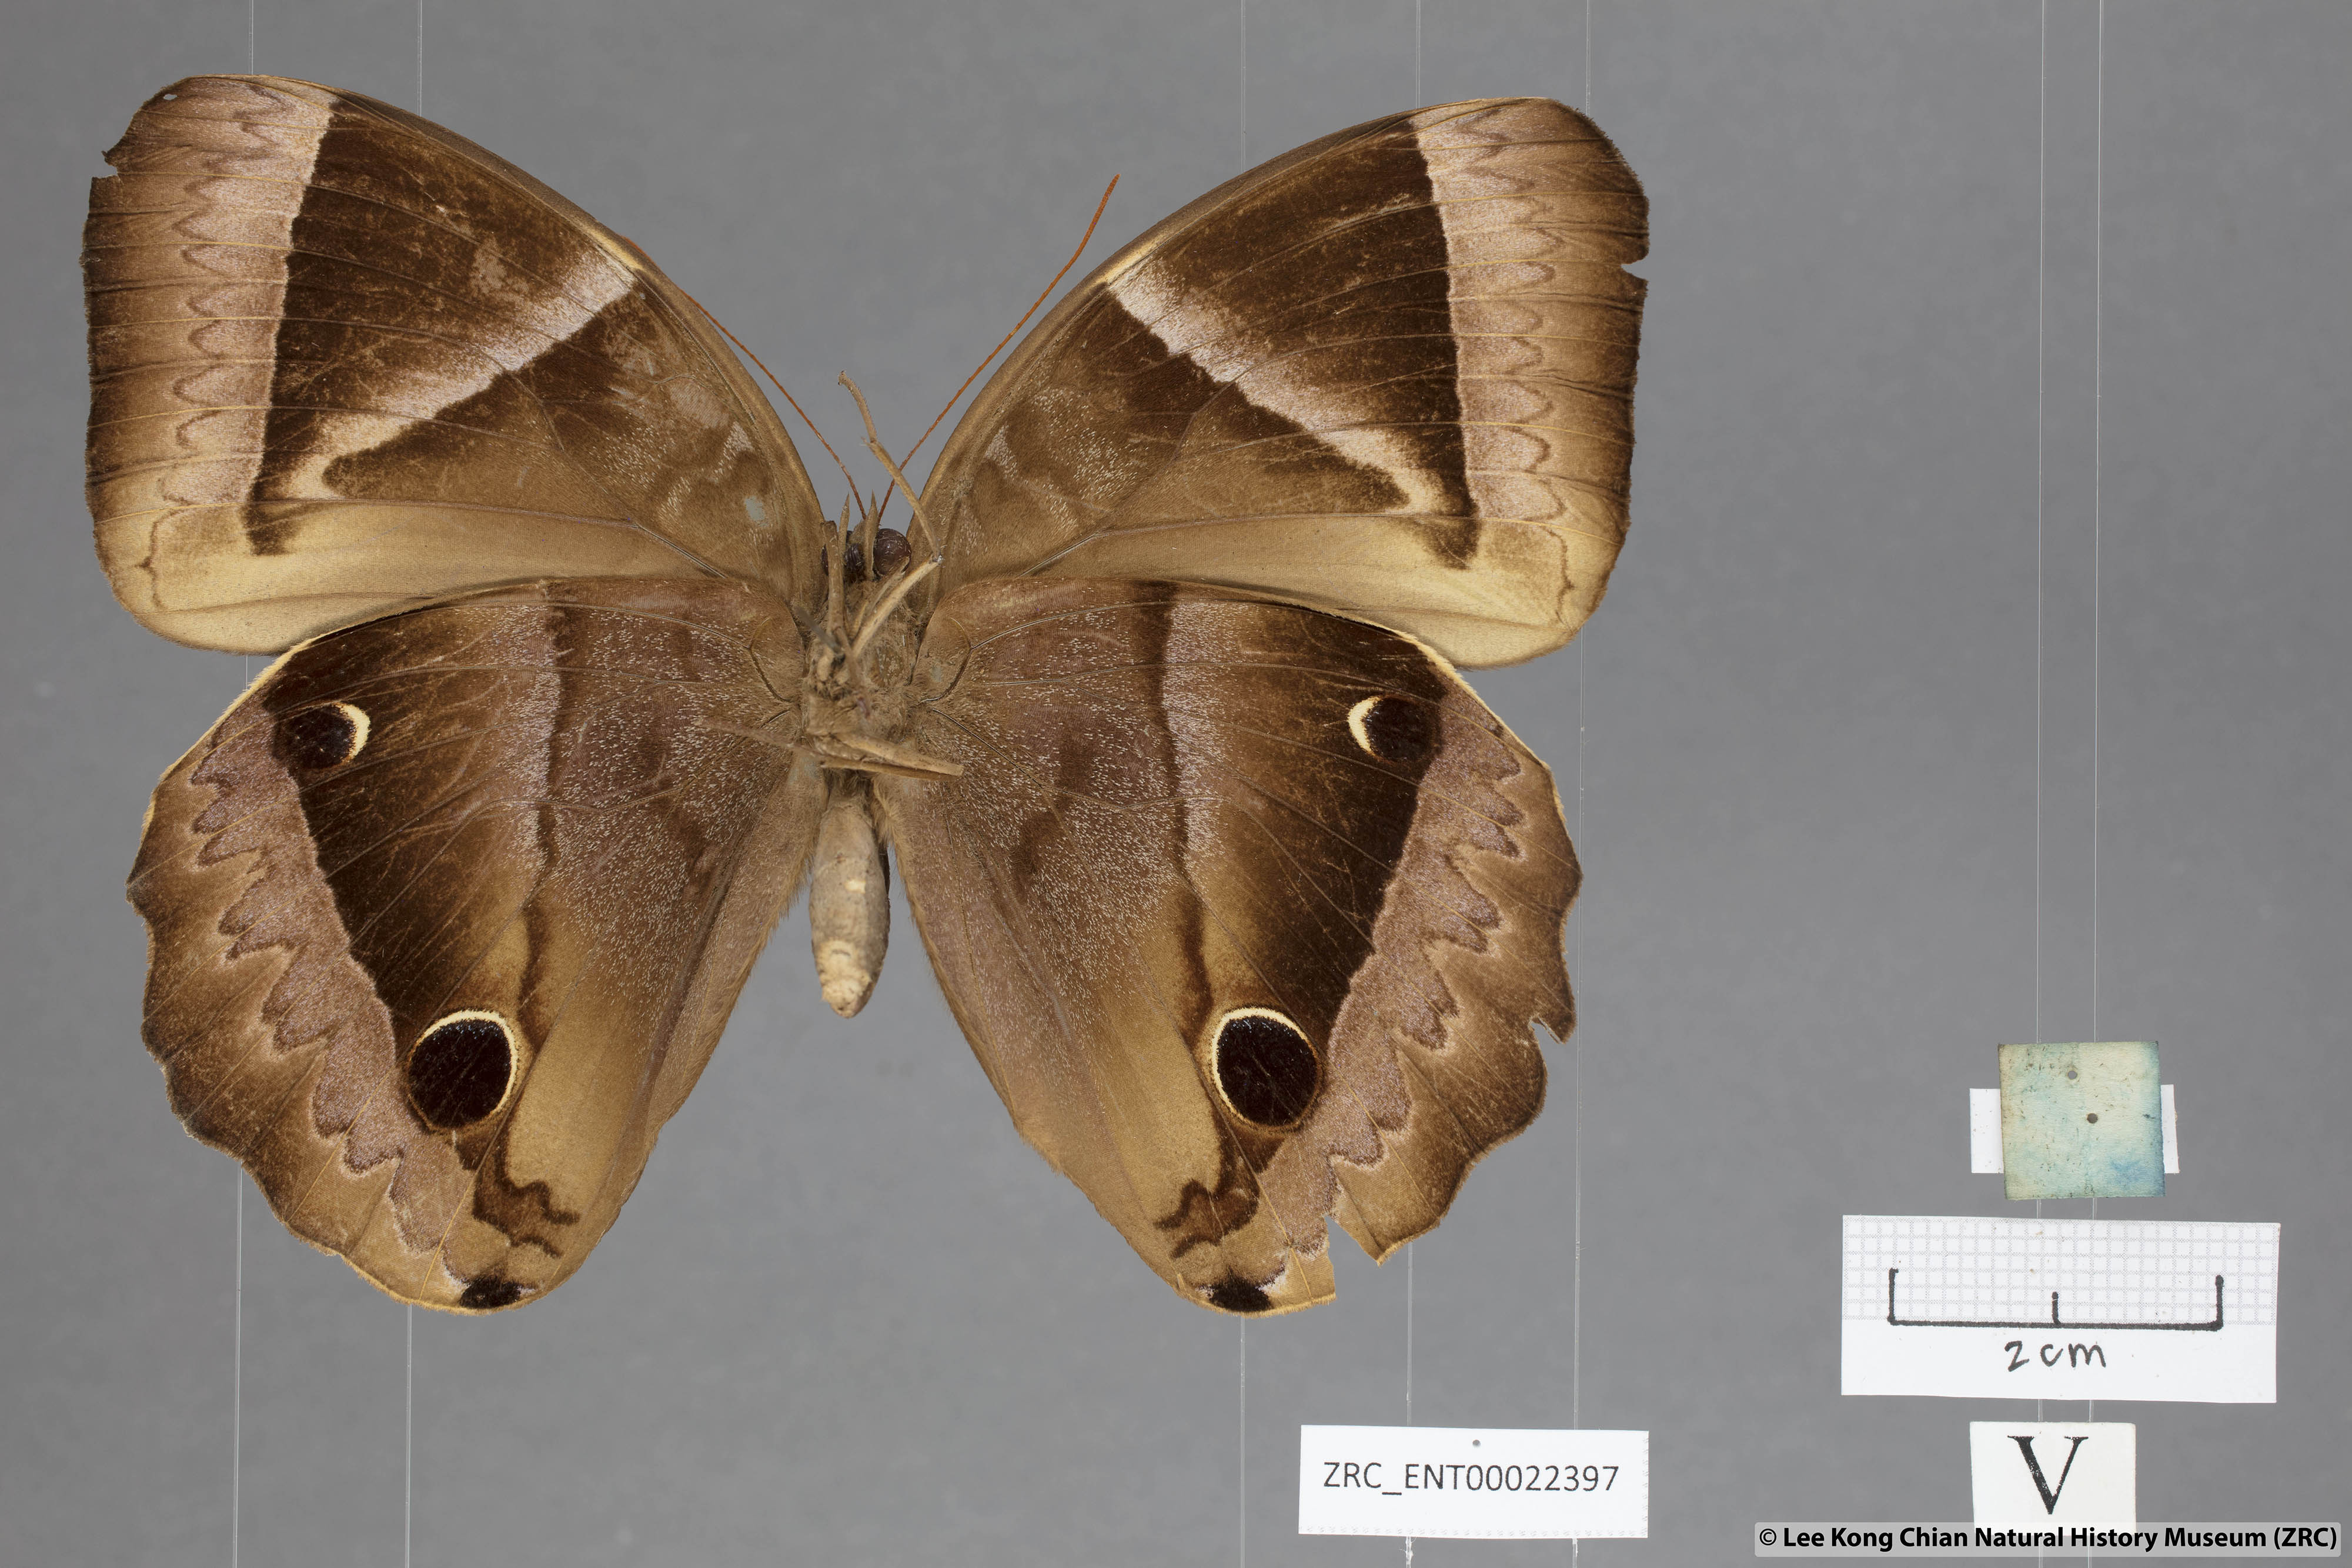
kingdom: Animalia
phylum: Arthropoda
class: Insecta
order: Lepidoptera
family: Nymphalidae
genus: Thaumantis
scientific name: Thaumantis klugius
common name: Dark blue jungle glory
